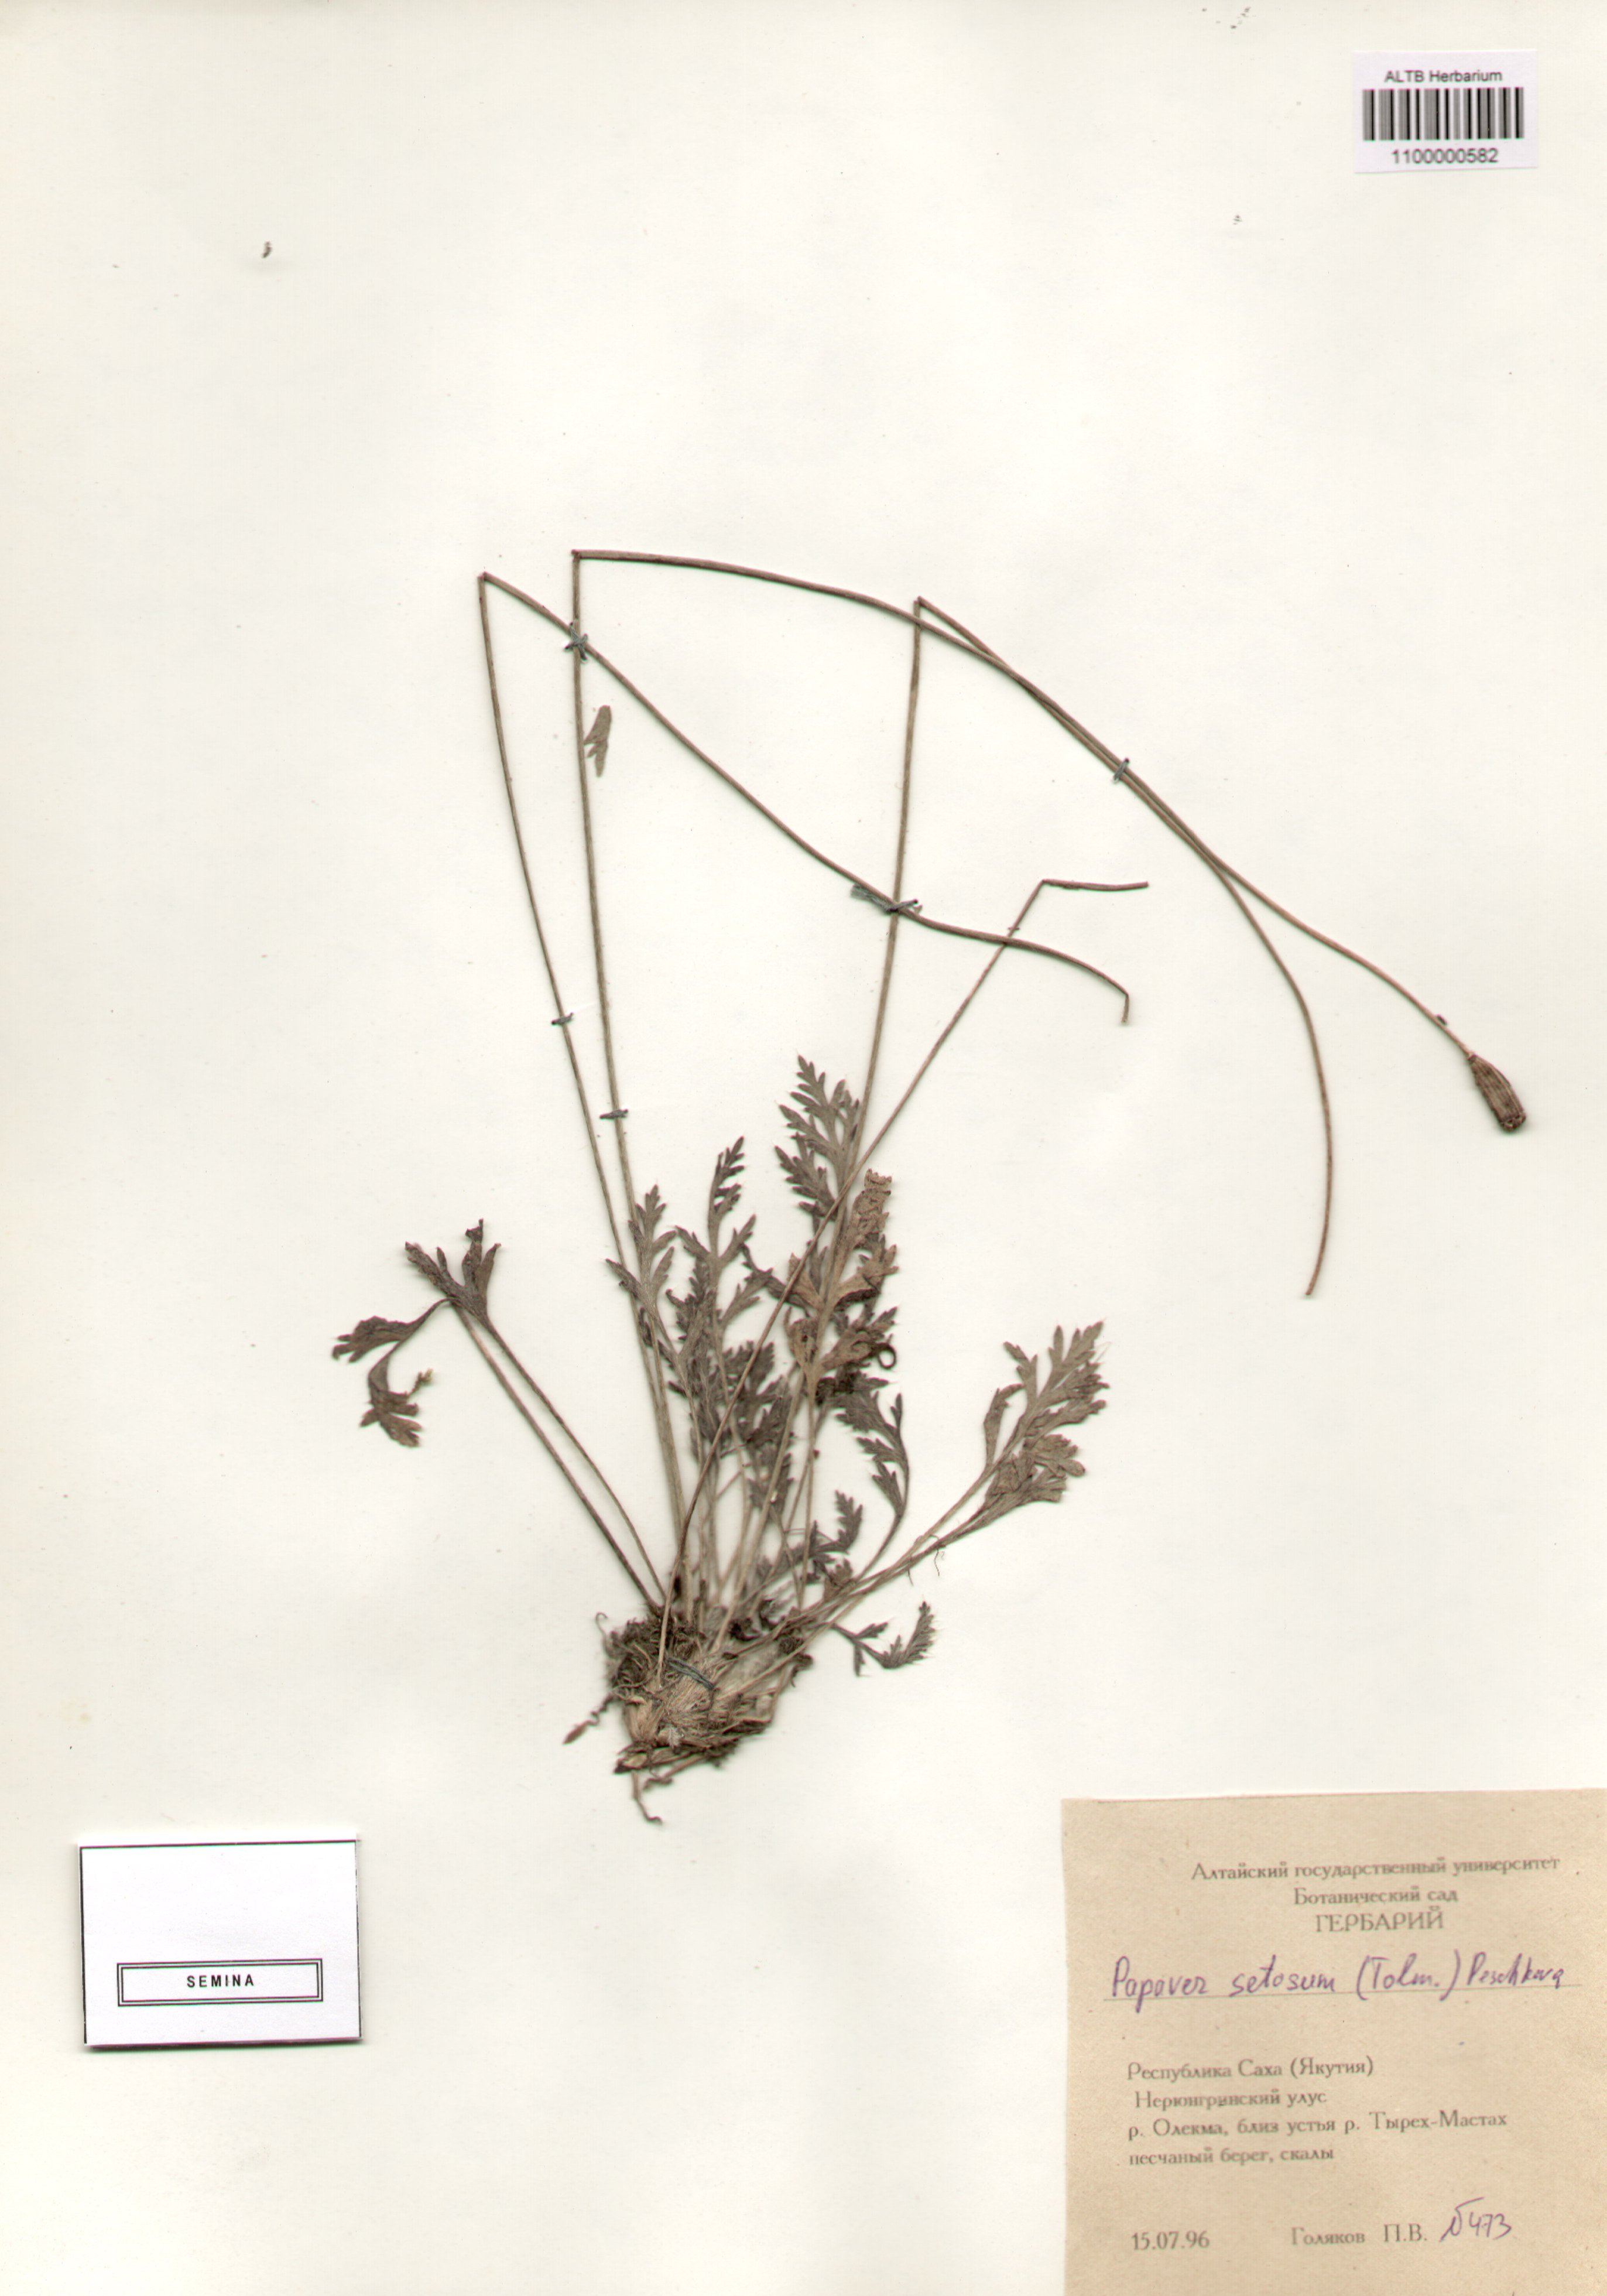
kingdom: Plantae
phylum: Tracheophyta
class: Magnoliopsida
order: Ranunculales
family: Papaveraceae
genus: Papaver
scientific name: Papaver setosum
